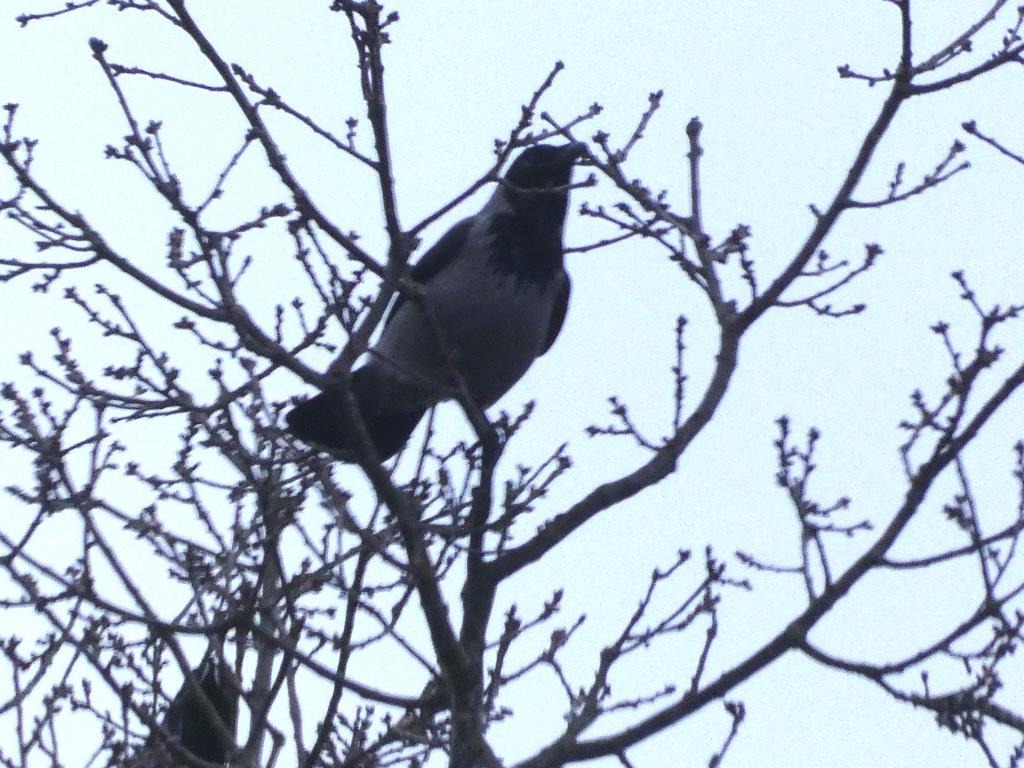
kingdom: Animalia
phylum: Chordata
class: Aves
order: Passeriformes
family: Corvidae
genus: Corvus
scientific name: Corvus cornix
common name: Gråkrage
